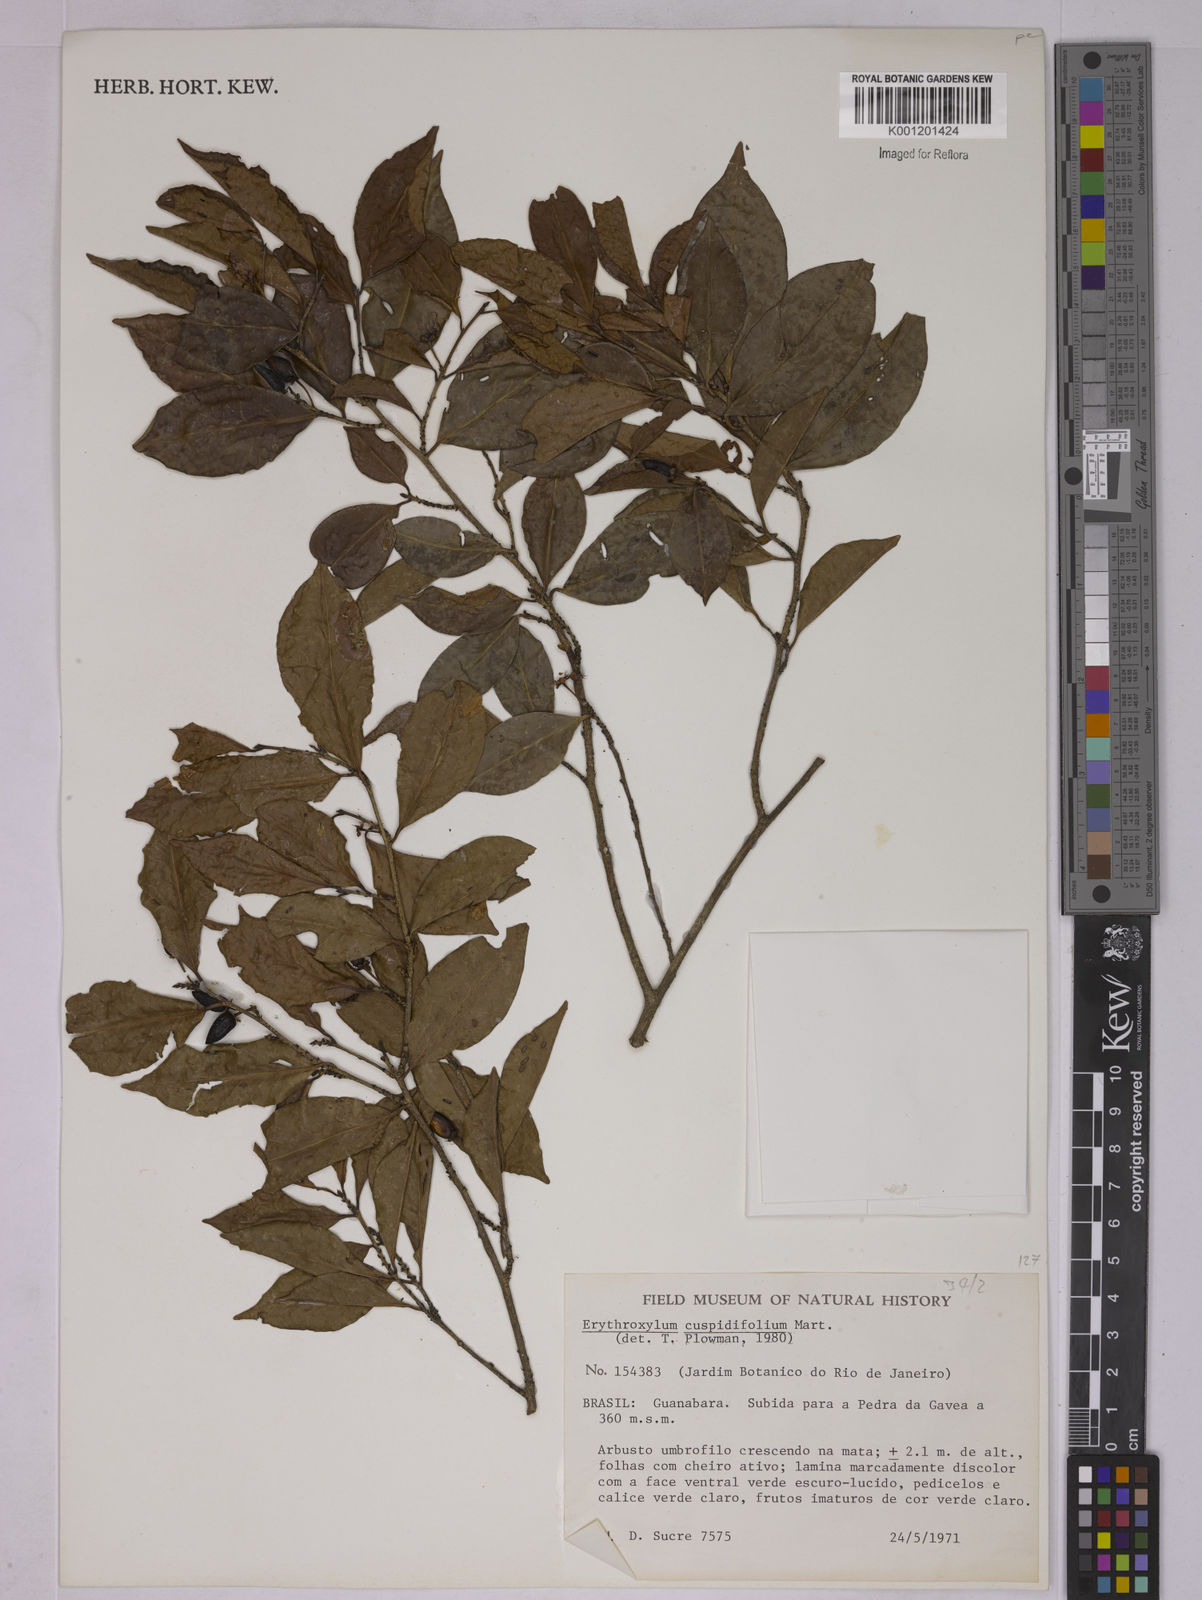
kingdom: Plantae
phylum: Tracheophyta
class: Magnoliopsida
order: Malpighiales
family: Erythroxylaceae
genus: Erythroxylum
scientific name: Erythroxylum cuspidifolium
